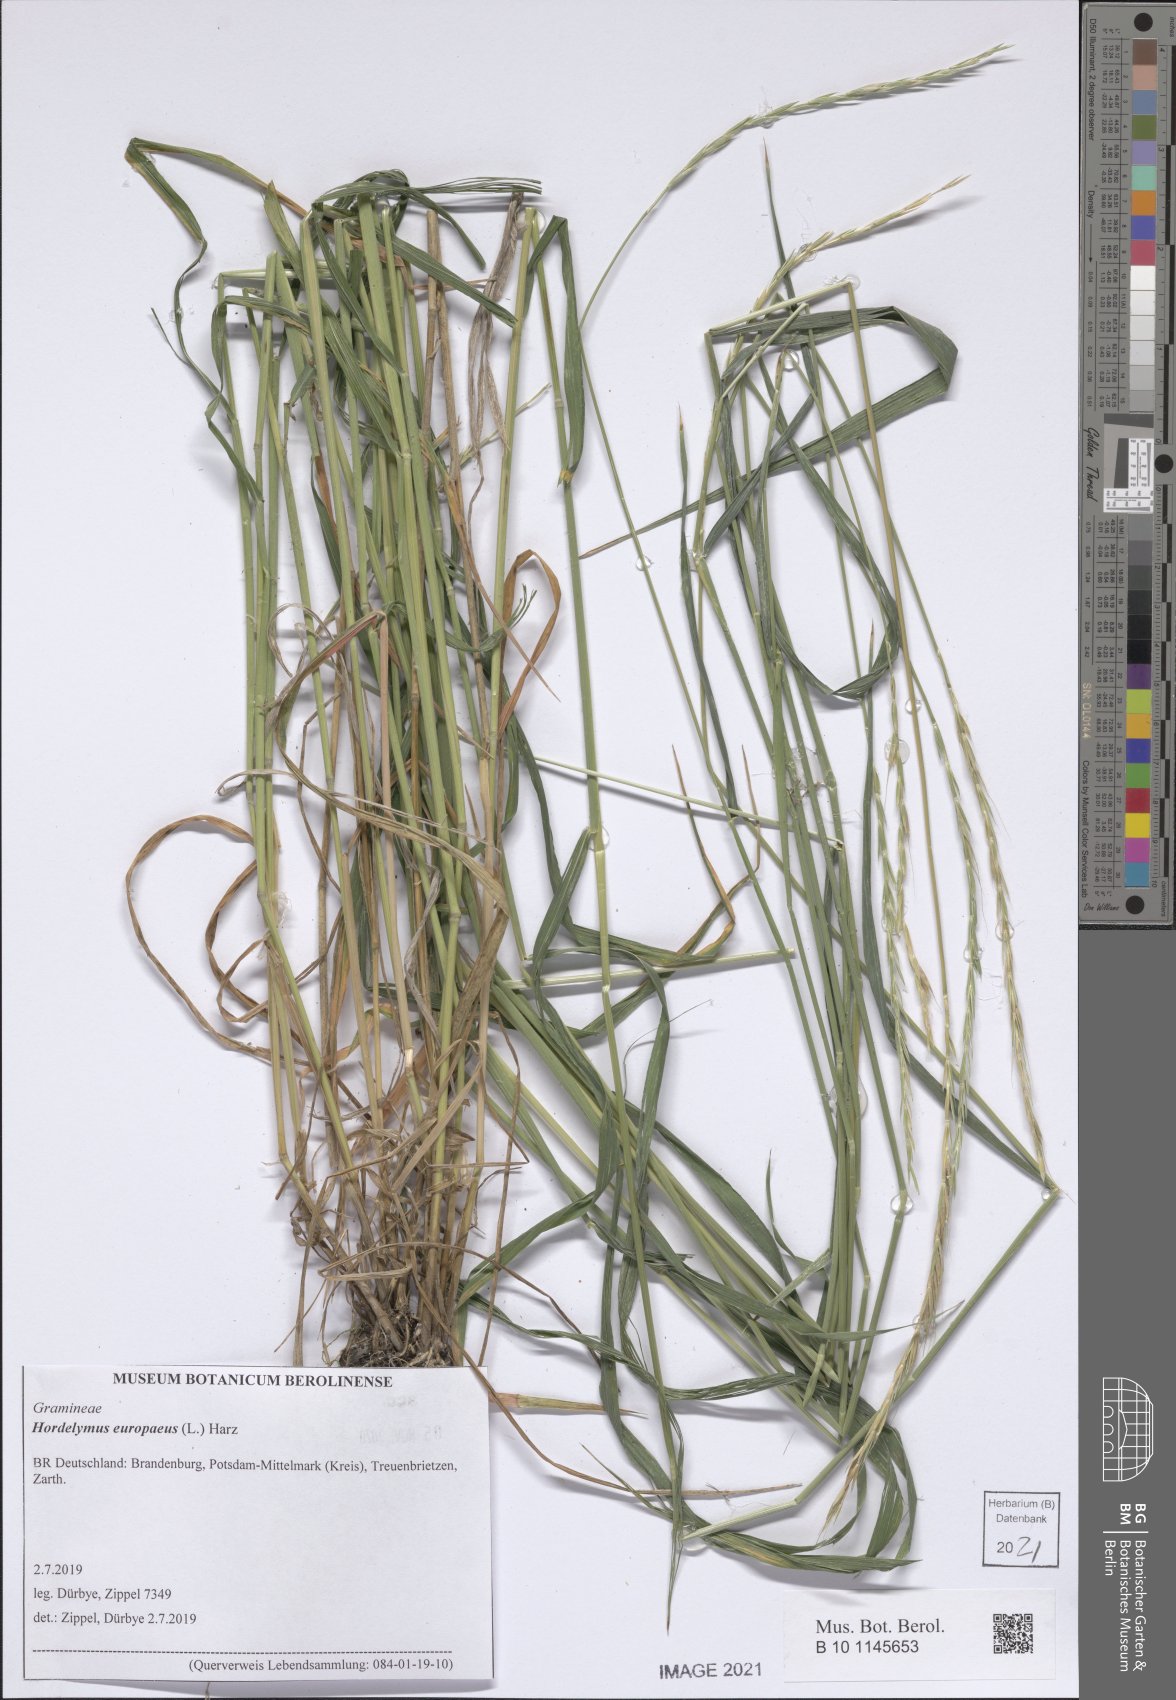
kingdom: Plantae
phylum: Tracheophyta
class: Liliopsida
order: Poales
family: Poaceae
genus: Hordelymus
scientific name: Hordelymus europaeus
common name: Wood-barley
